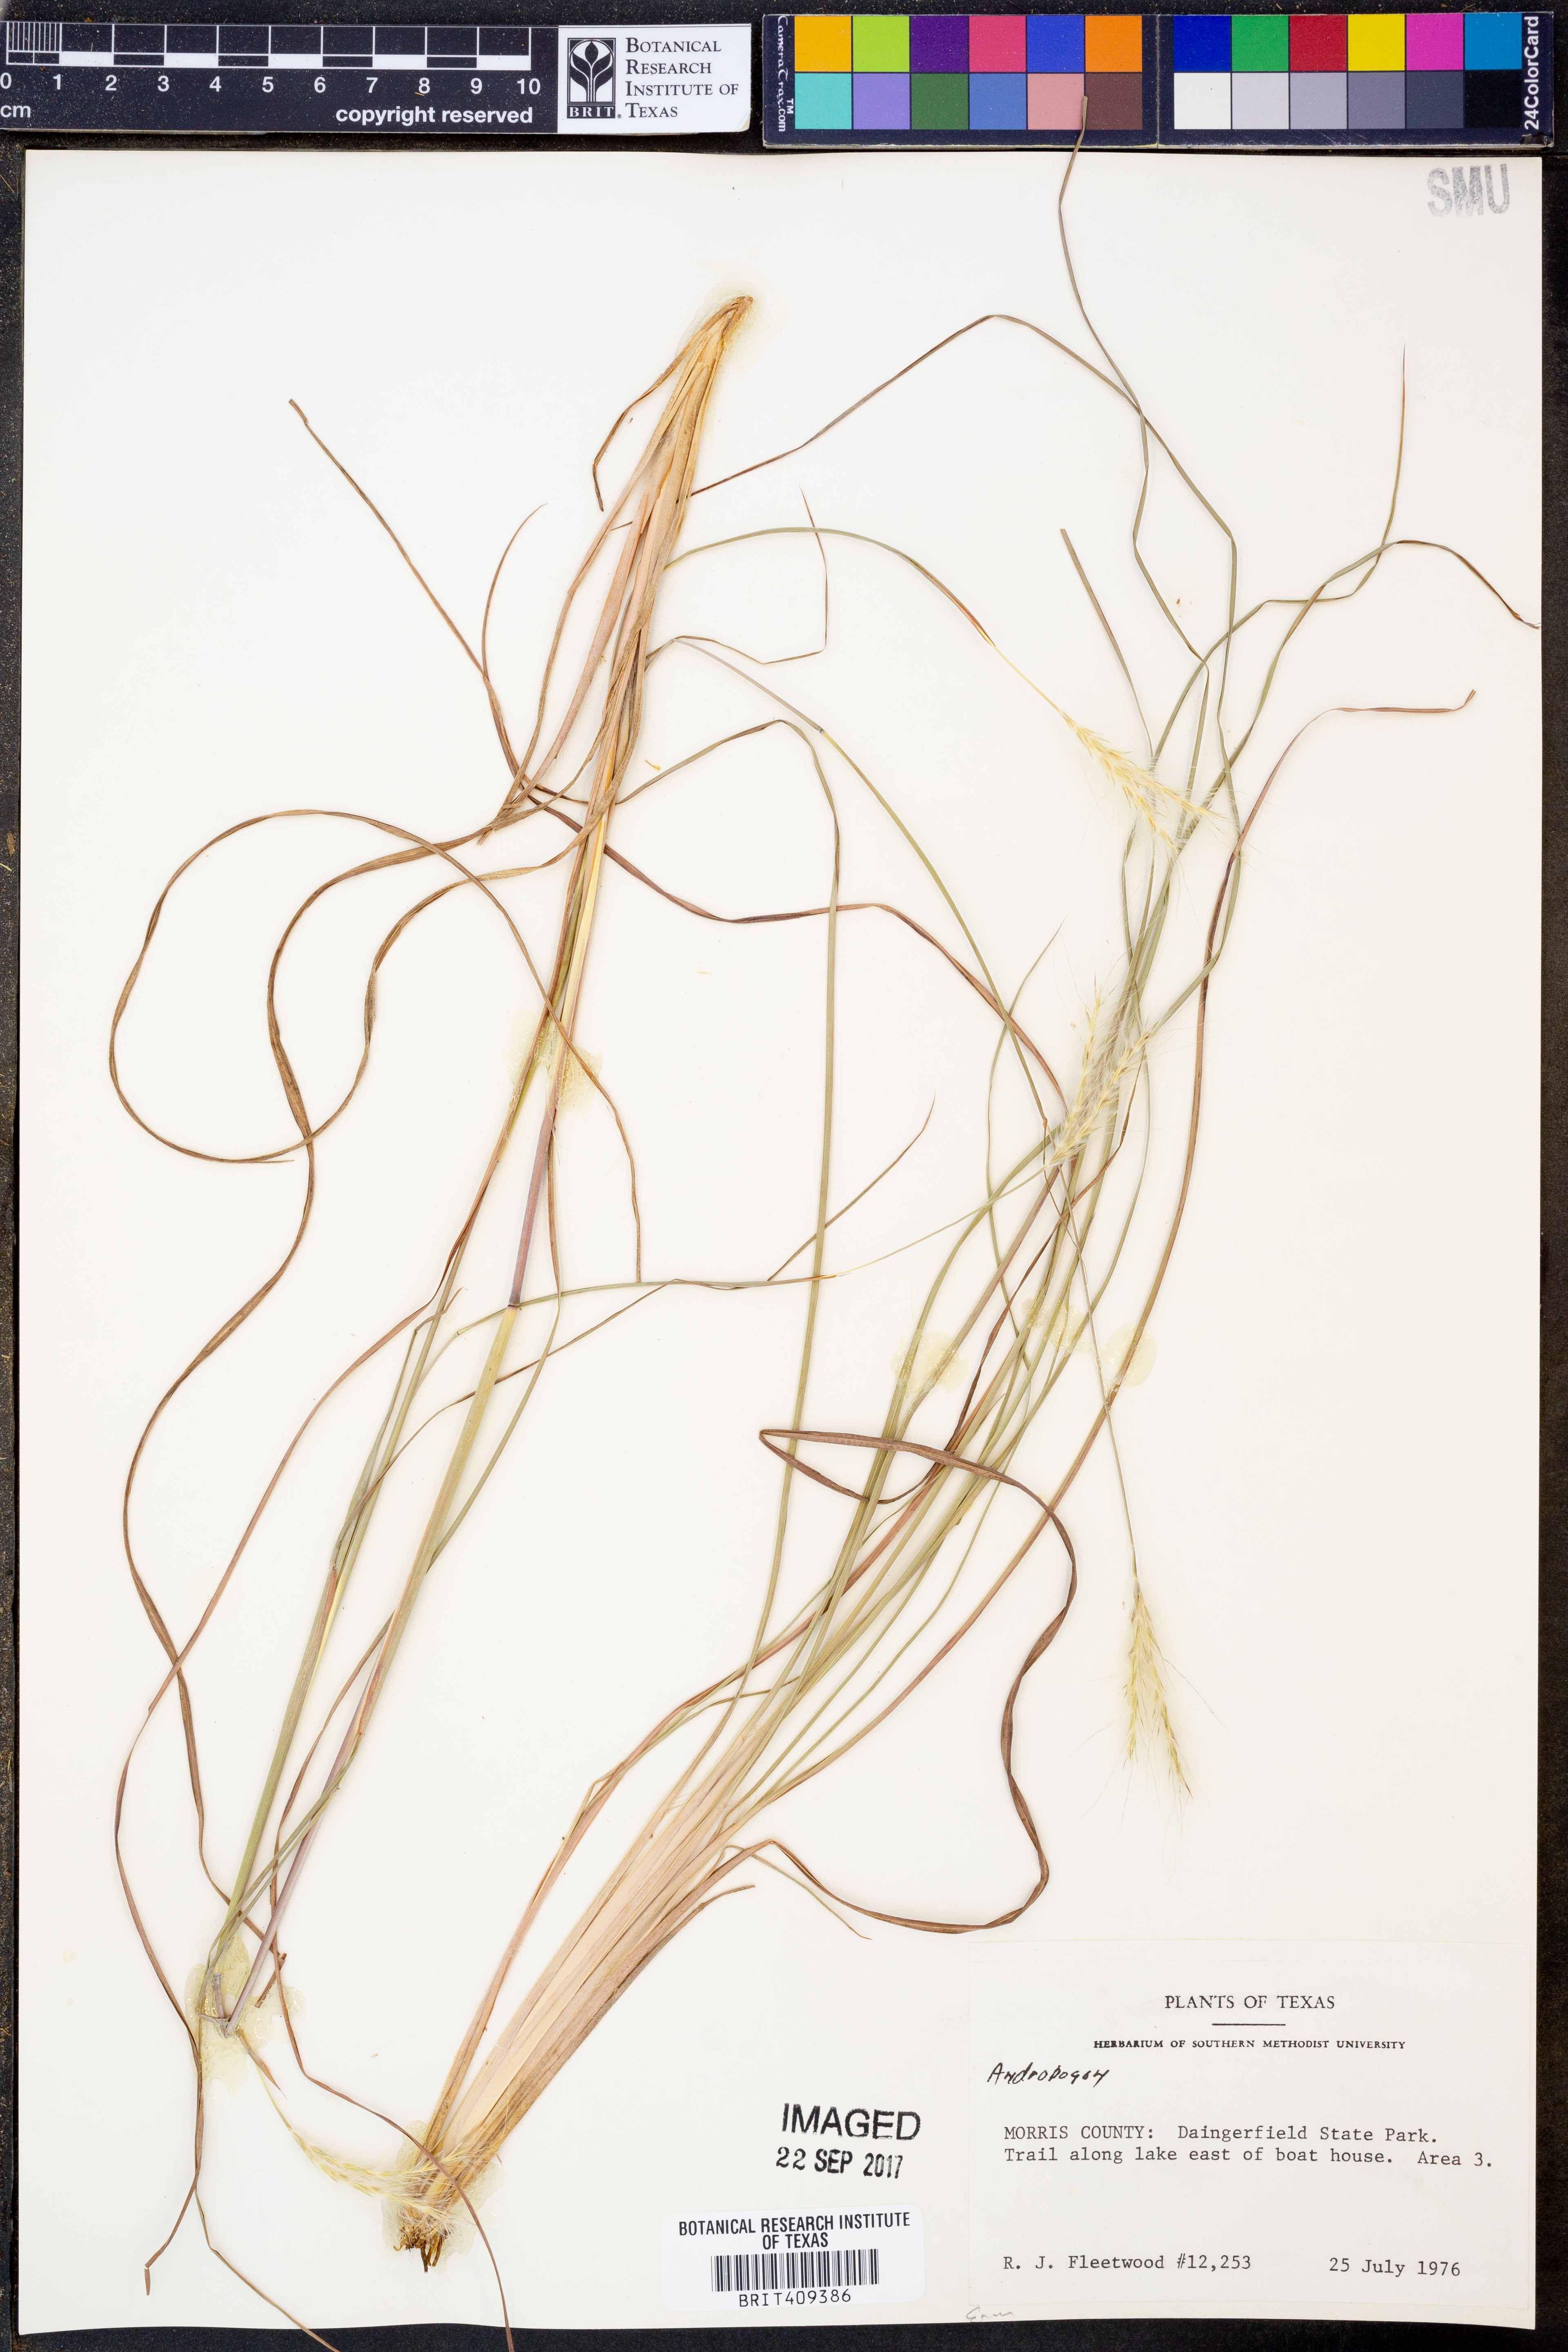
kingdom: Plantae
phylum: Tracheophyta
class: Liliopsida
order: Poales
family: Poaceae
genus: Andropogon
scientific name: Andropogon
